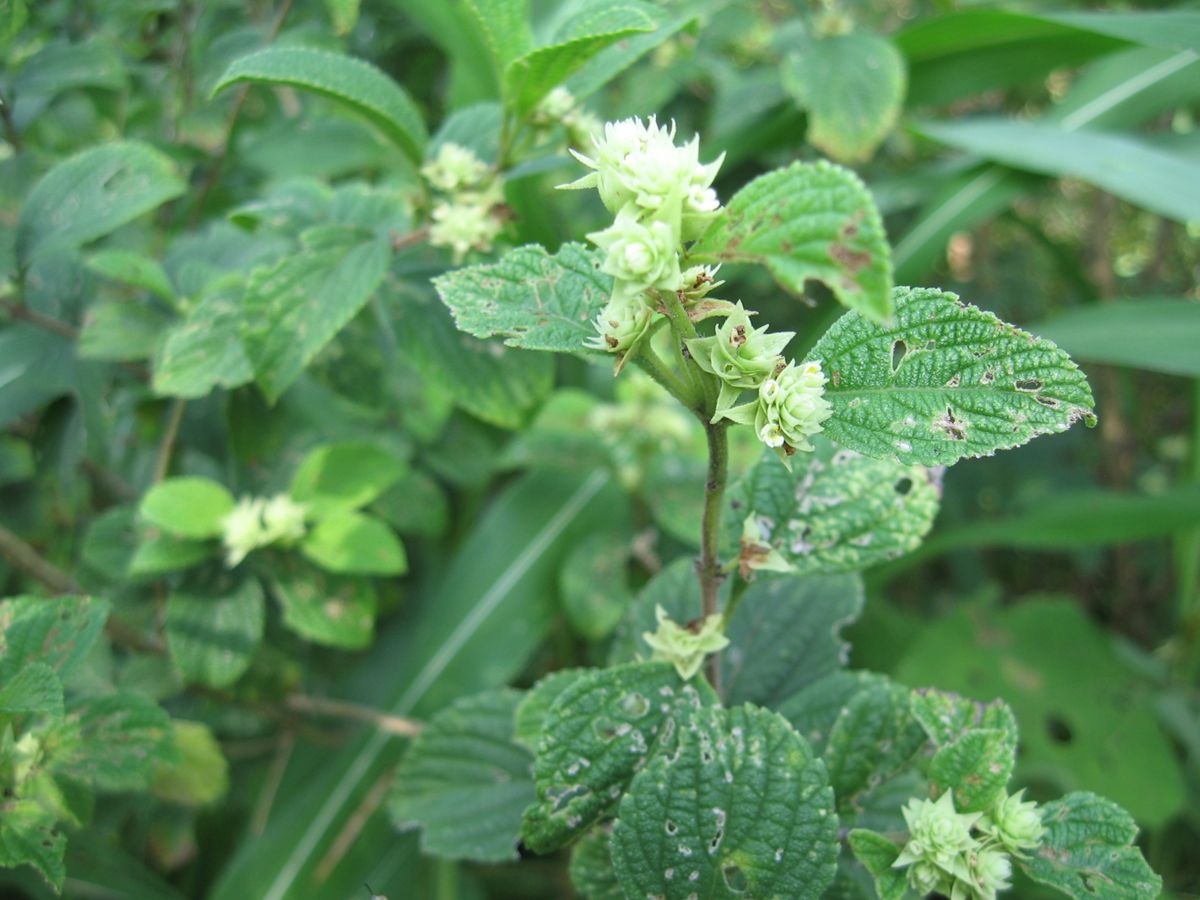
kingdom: Plantae
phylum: Tracheophyta
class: Magnoliopsida
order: Lamiales
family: Verbenaceae
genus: Lippia
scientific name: Lippia cardiostegia
